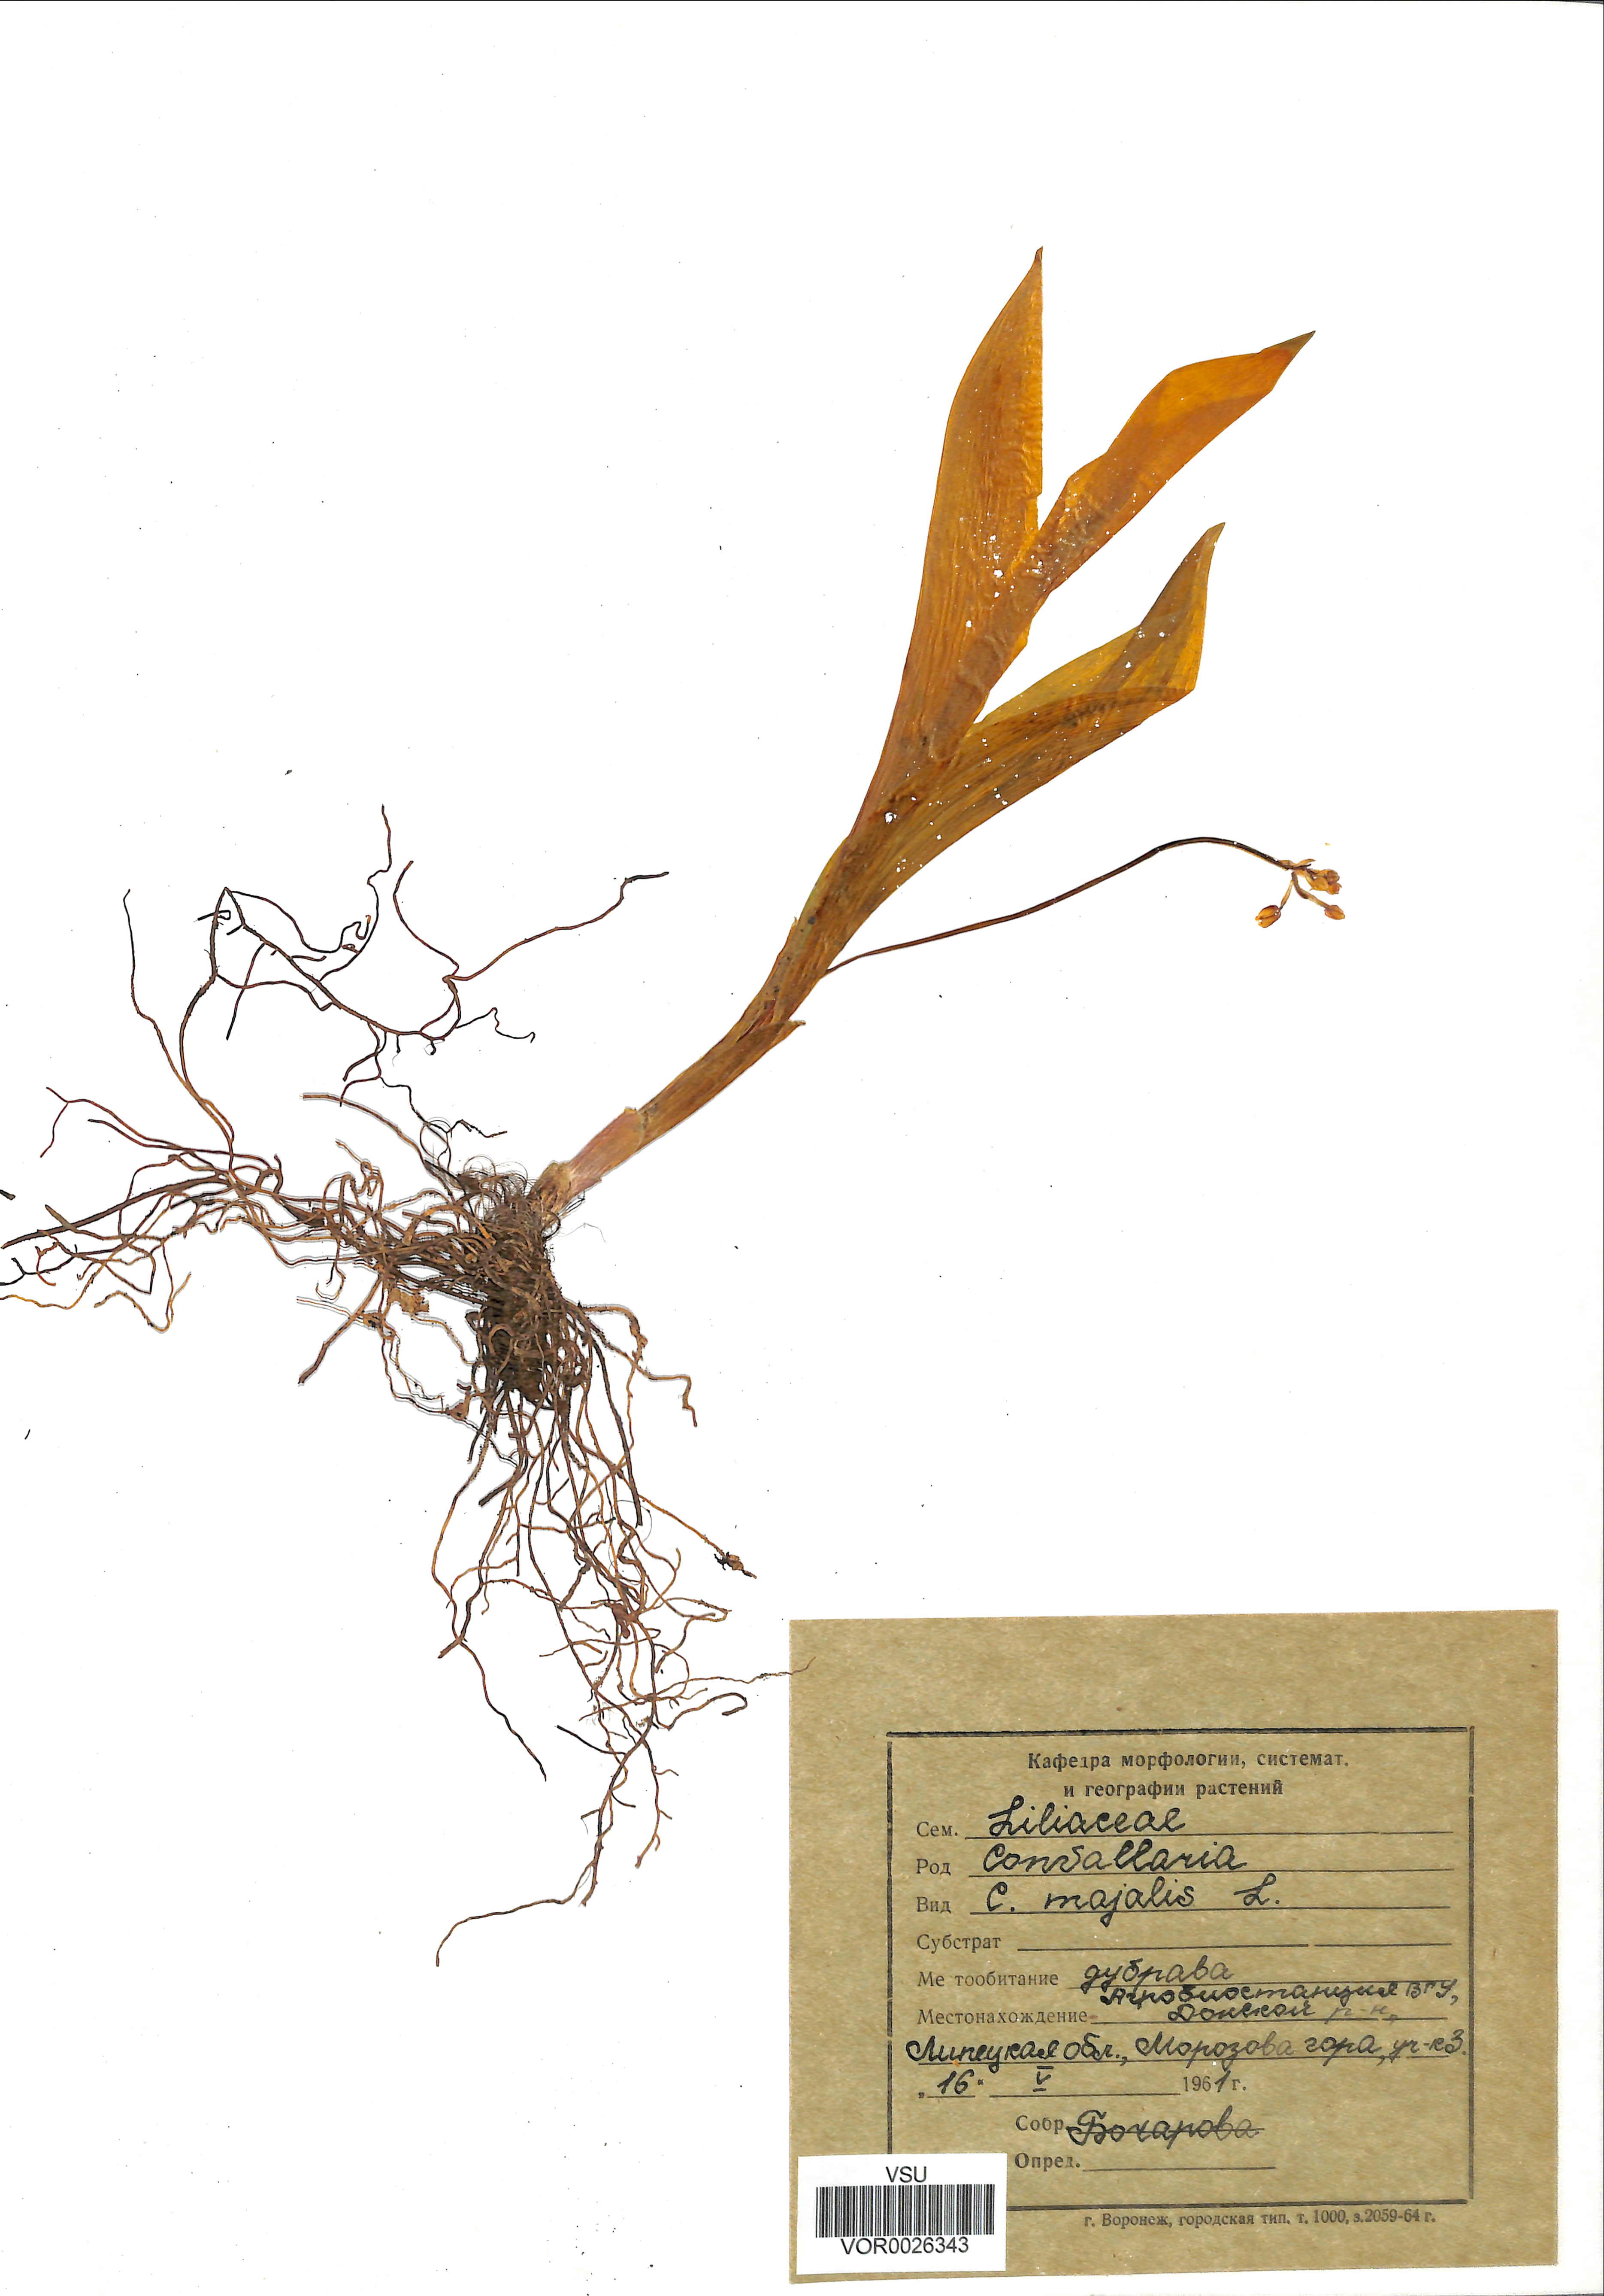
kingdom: Plantae
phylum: Tracheophyta
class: Liliopsida
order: Asparagales
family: Asparagaceae
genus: Convallaria
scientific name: Convallaria majalis
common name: Lily-of-the-valley
